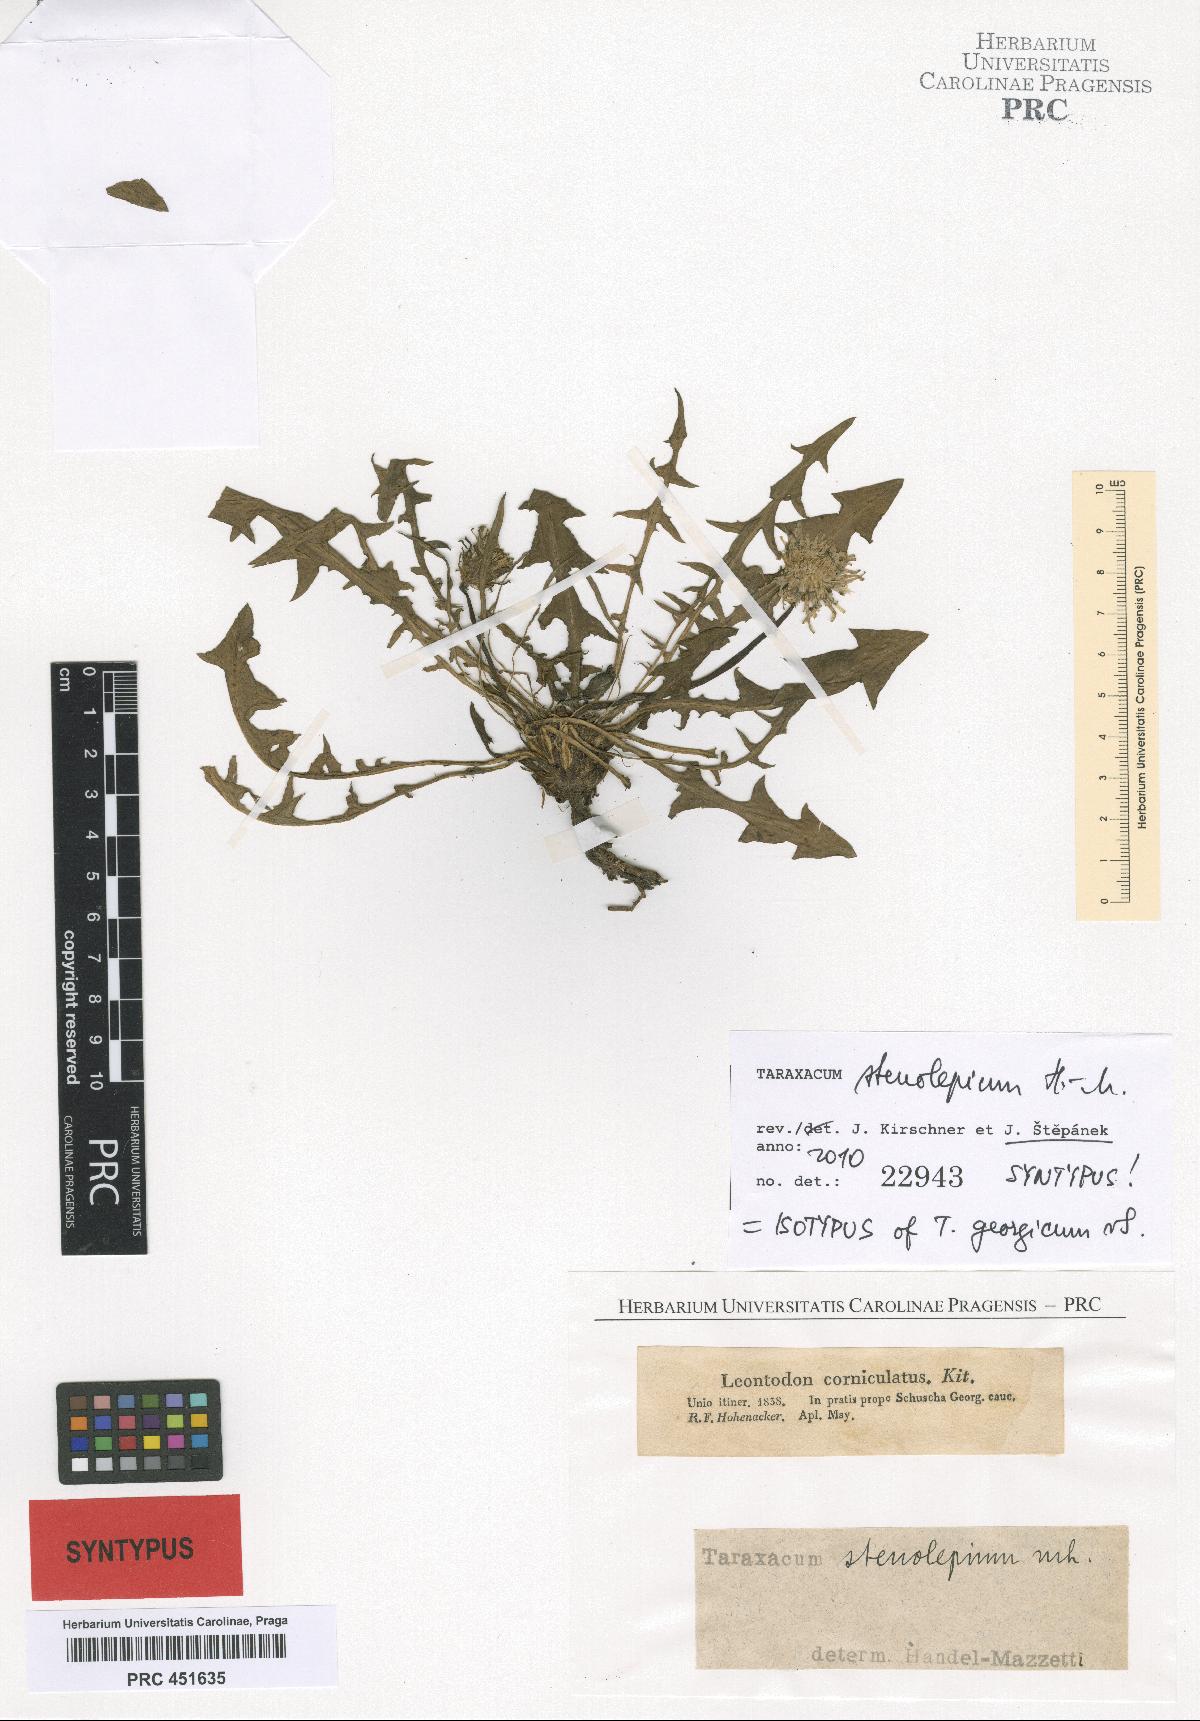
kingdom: Plantae
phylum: Tracheophyta
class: Magnoliopsida
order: Asterales
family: Asteraceae
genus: Taraxacum
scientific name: Taraxacum stenolepium
